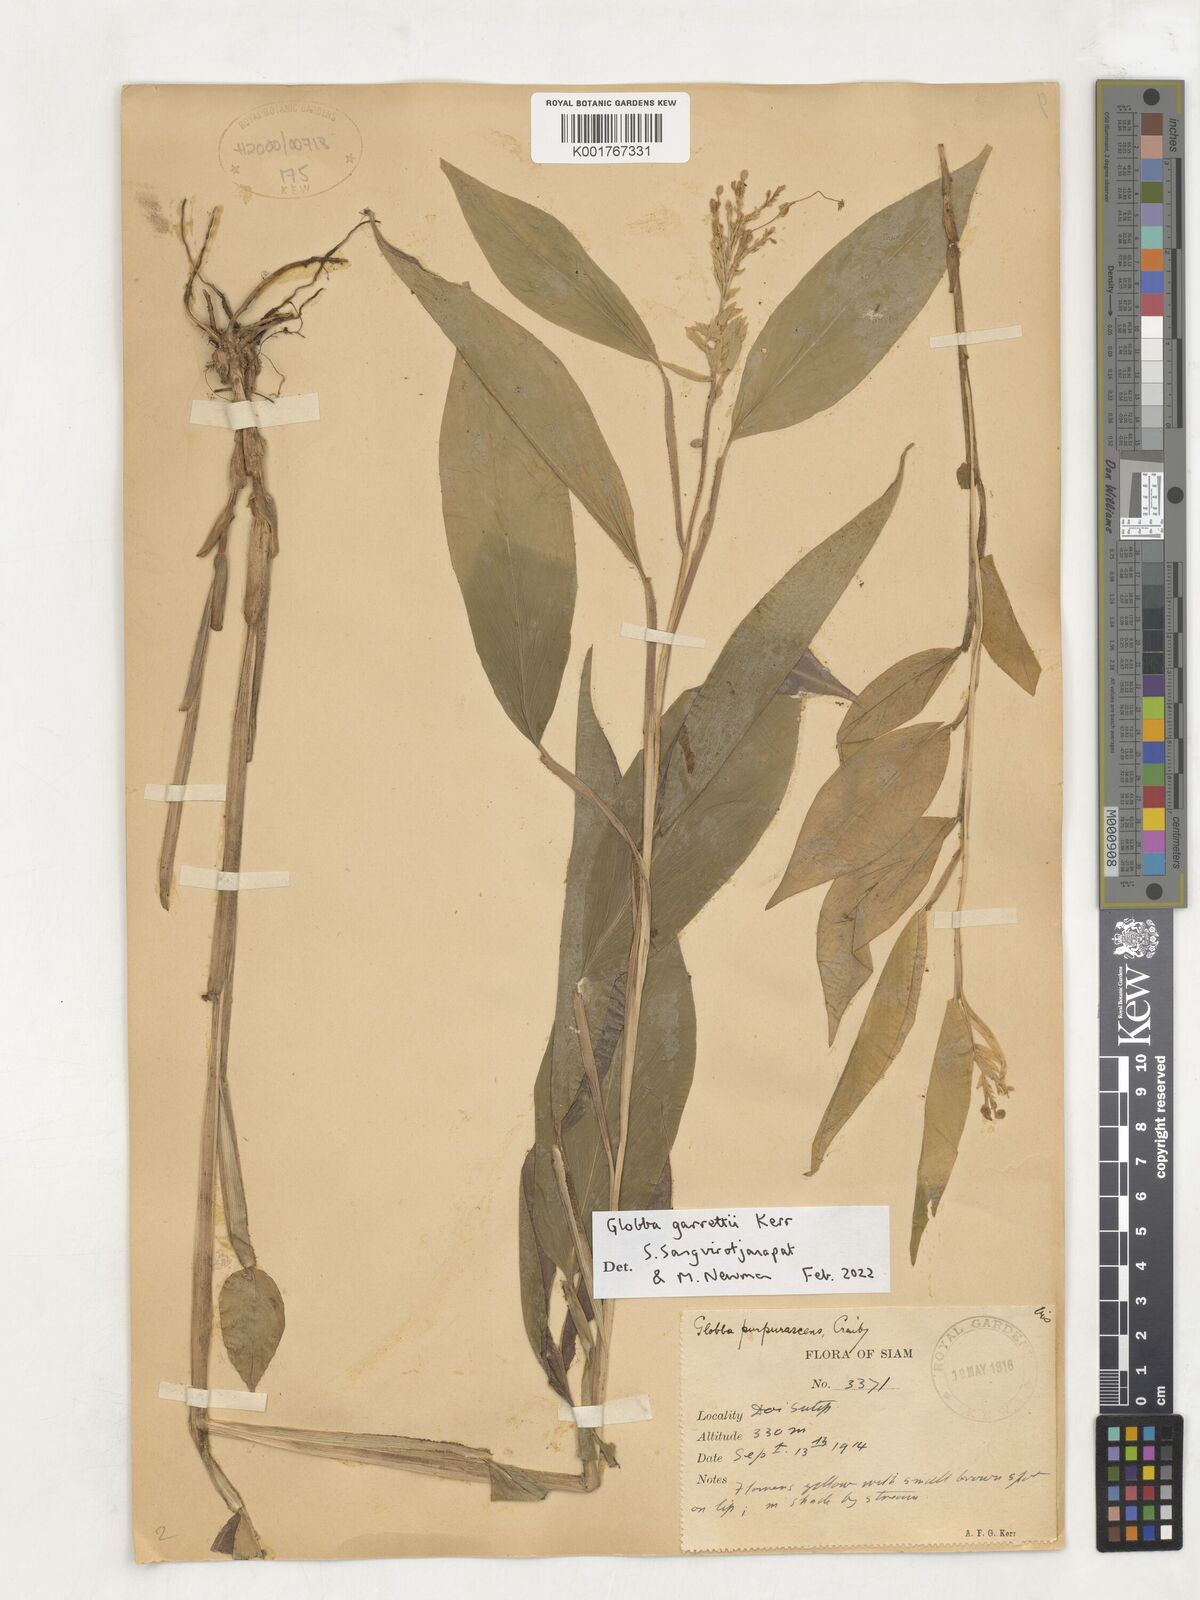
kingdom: Plantae
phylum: Tracheophyta
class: Liliopsida
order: Zingiberales
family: Zingiberaceae
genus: Globba
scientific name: Globba garrettii
